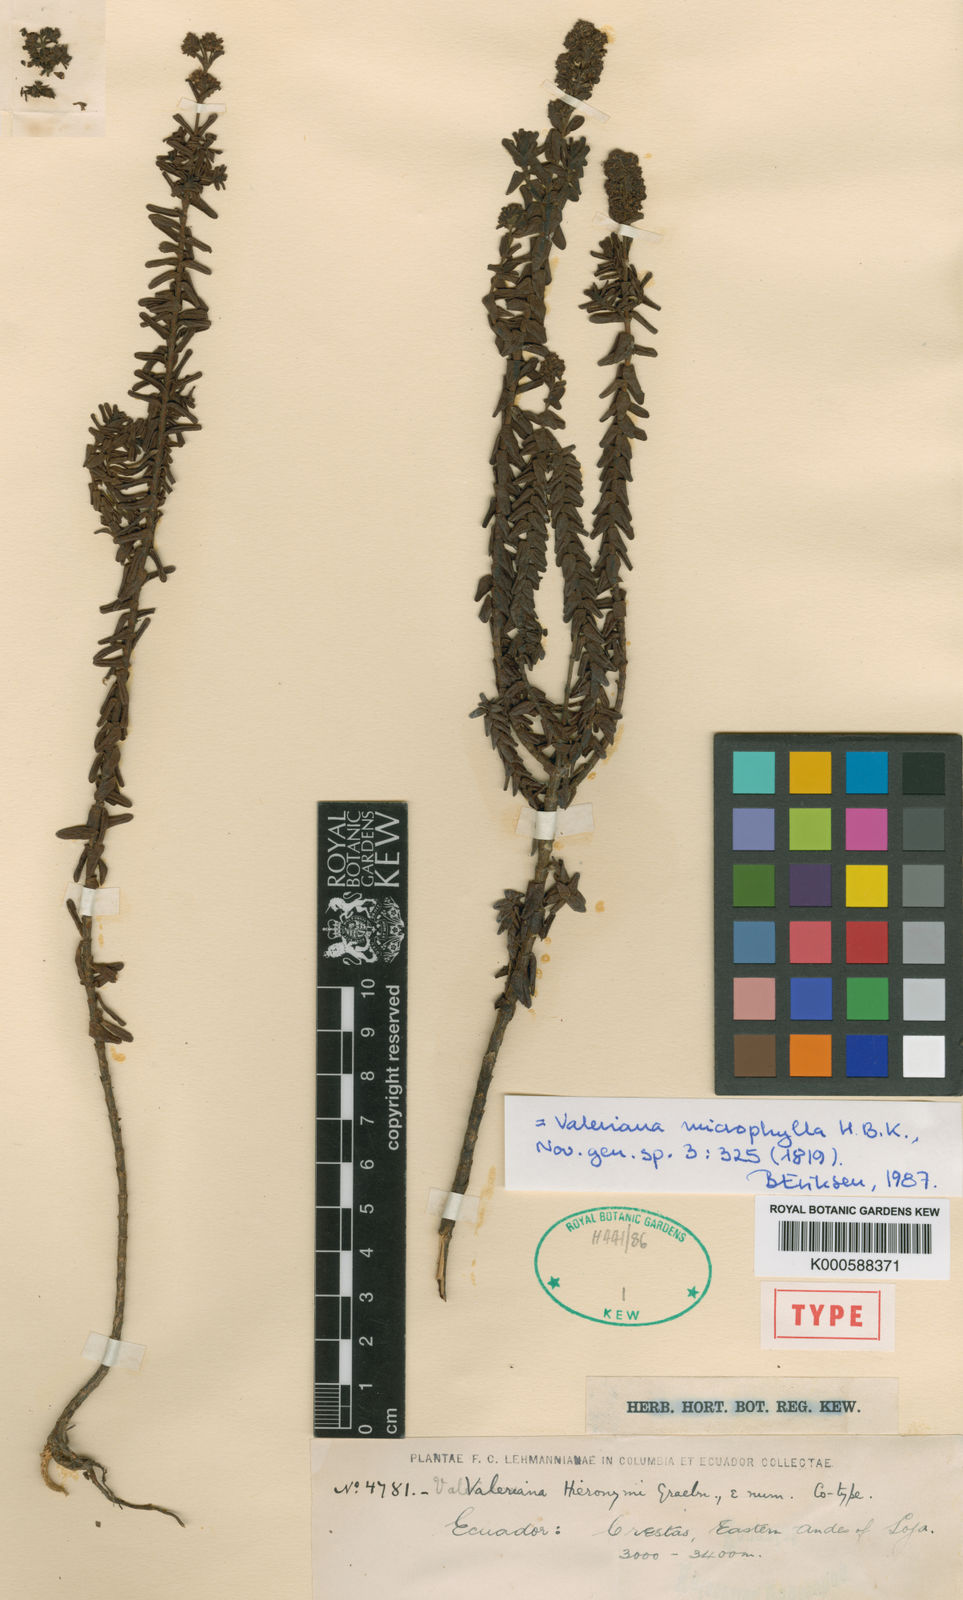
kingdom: Plantae
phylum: Tracheophyta
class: Magnoliopsida
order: Dipsacales
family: Caprifoliaceae
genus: Valeriana
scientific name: Valeriana microphylla
